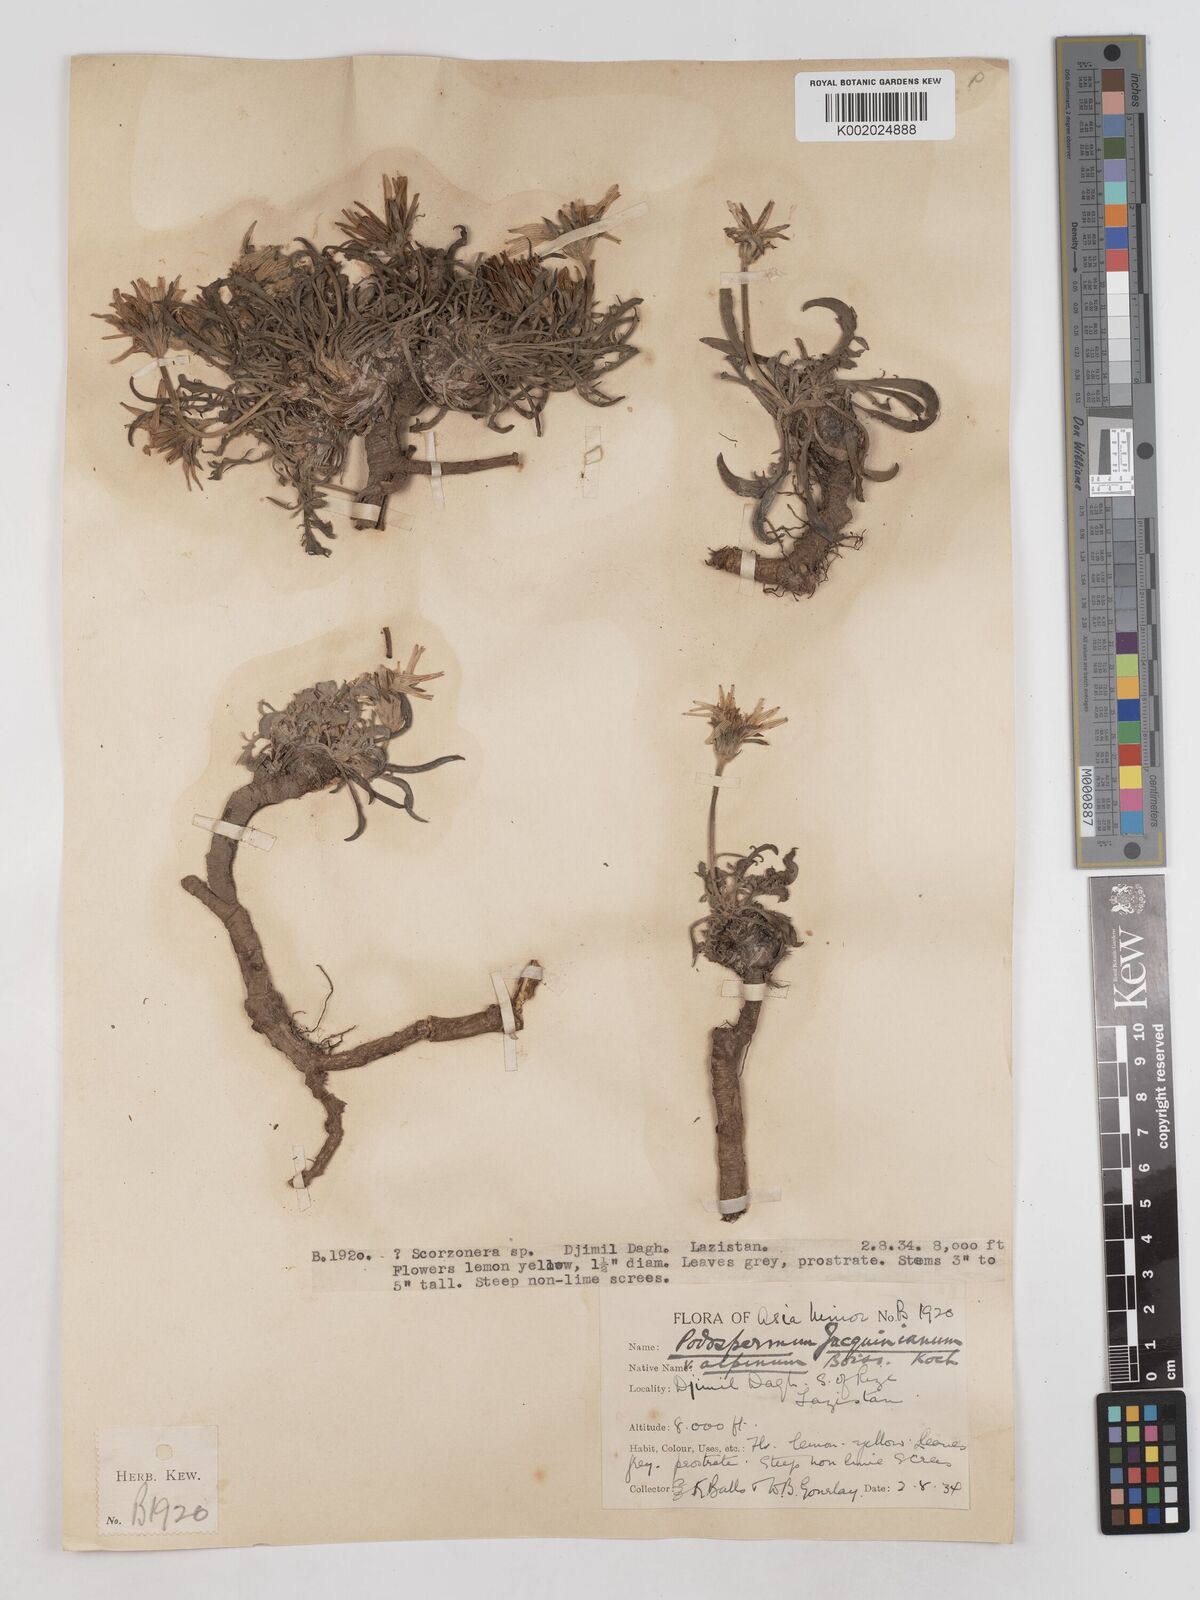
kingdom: Plantae
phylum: Tracheophyta
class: Magnoliopsida
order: Asterales
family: Asteraceae
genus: Scorzonera
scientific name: Scorzonera cana
